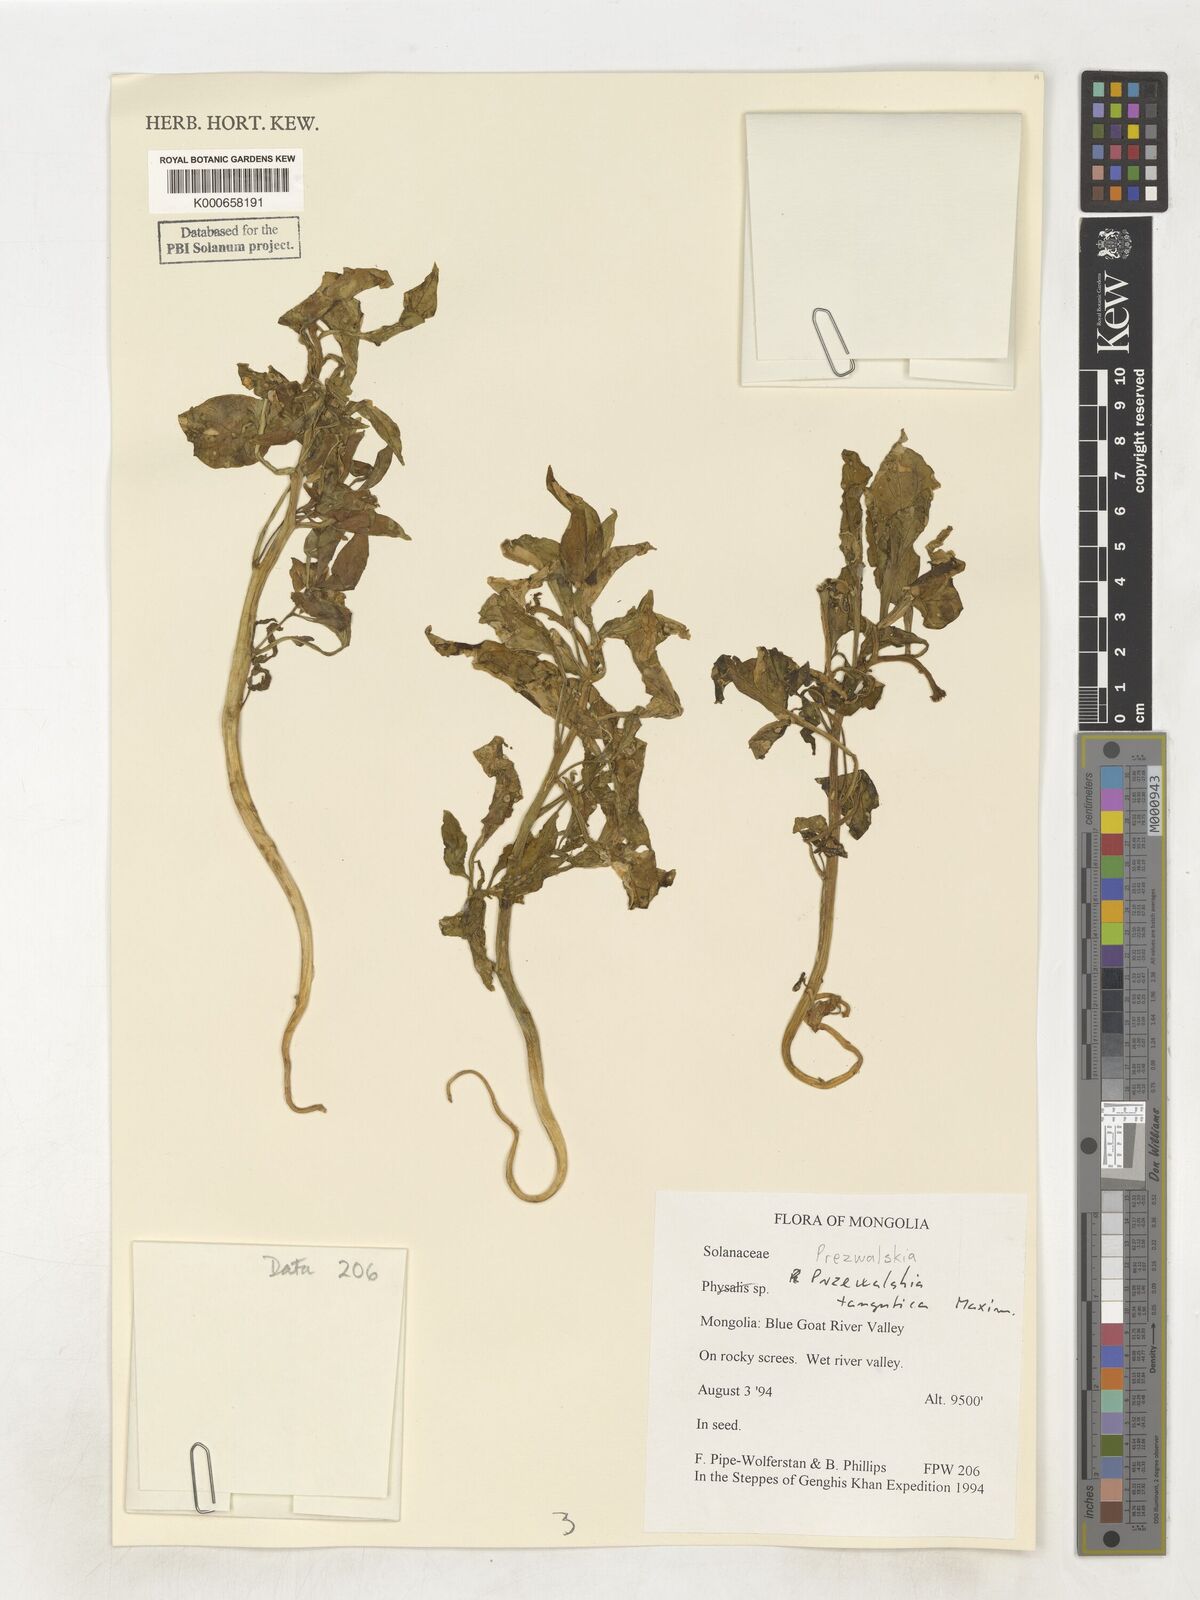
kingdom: Plantae
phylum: Tracheophyta
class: Magnoliopsida
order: Solanales
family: Solanaceae
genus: Przewalskia
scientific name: Przewalskia tangutica
